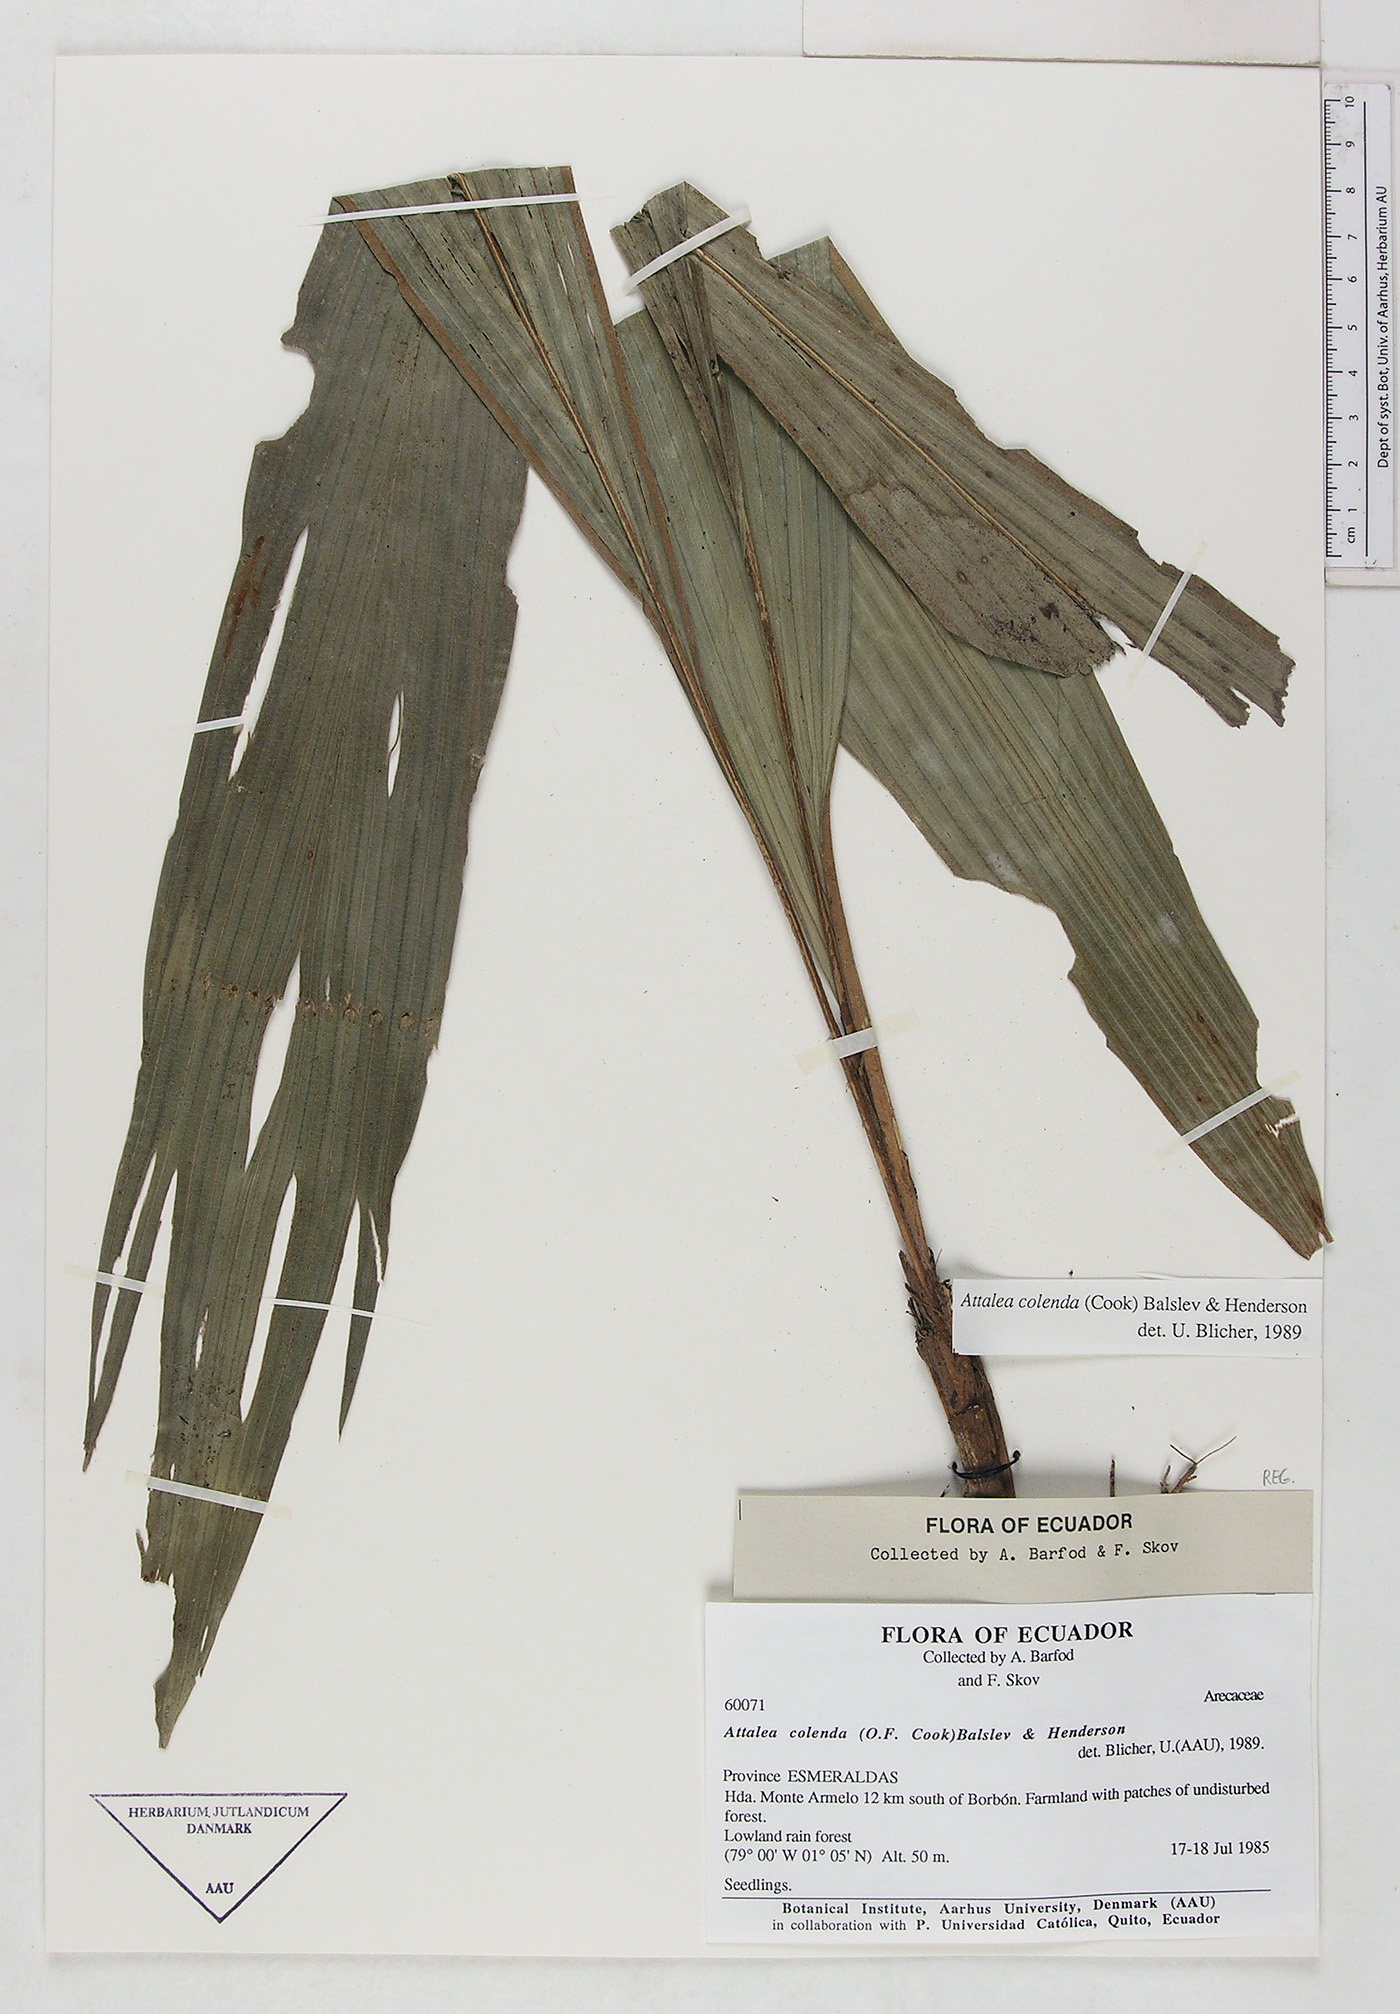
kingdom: Plantae
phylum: Tracheophyta
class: Liliopsida
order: Arecales
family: Arecaceae
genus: Attalea
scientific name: Attalea colenda
